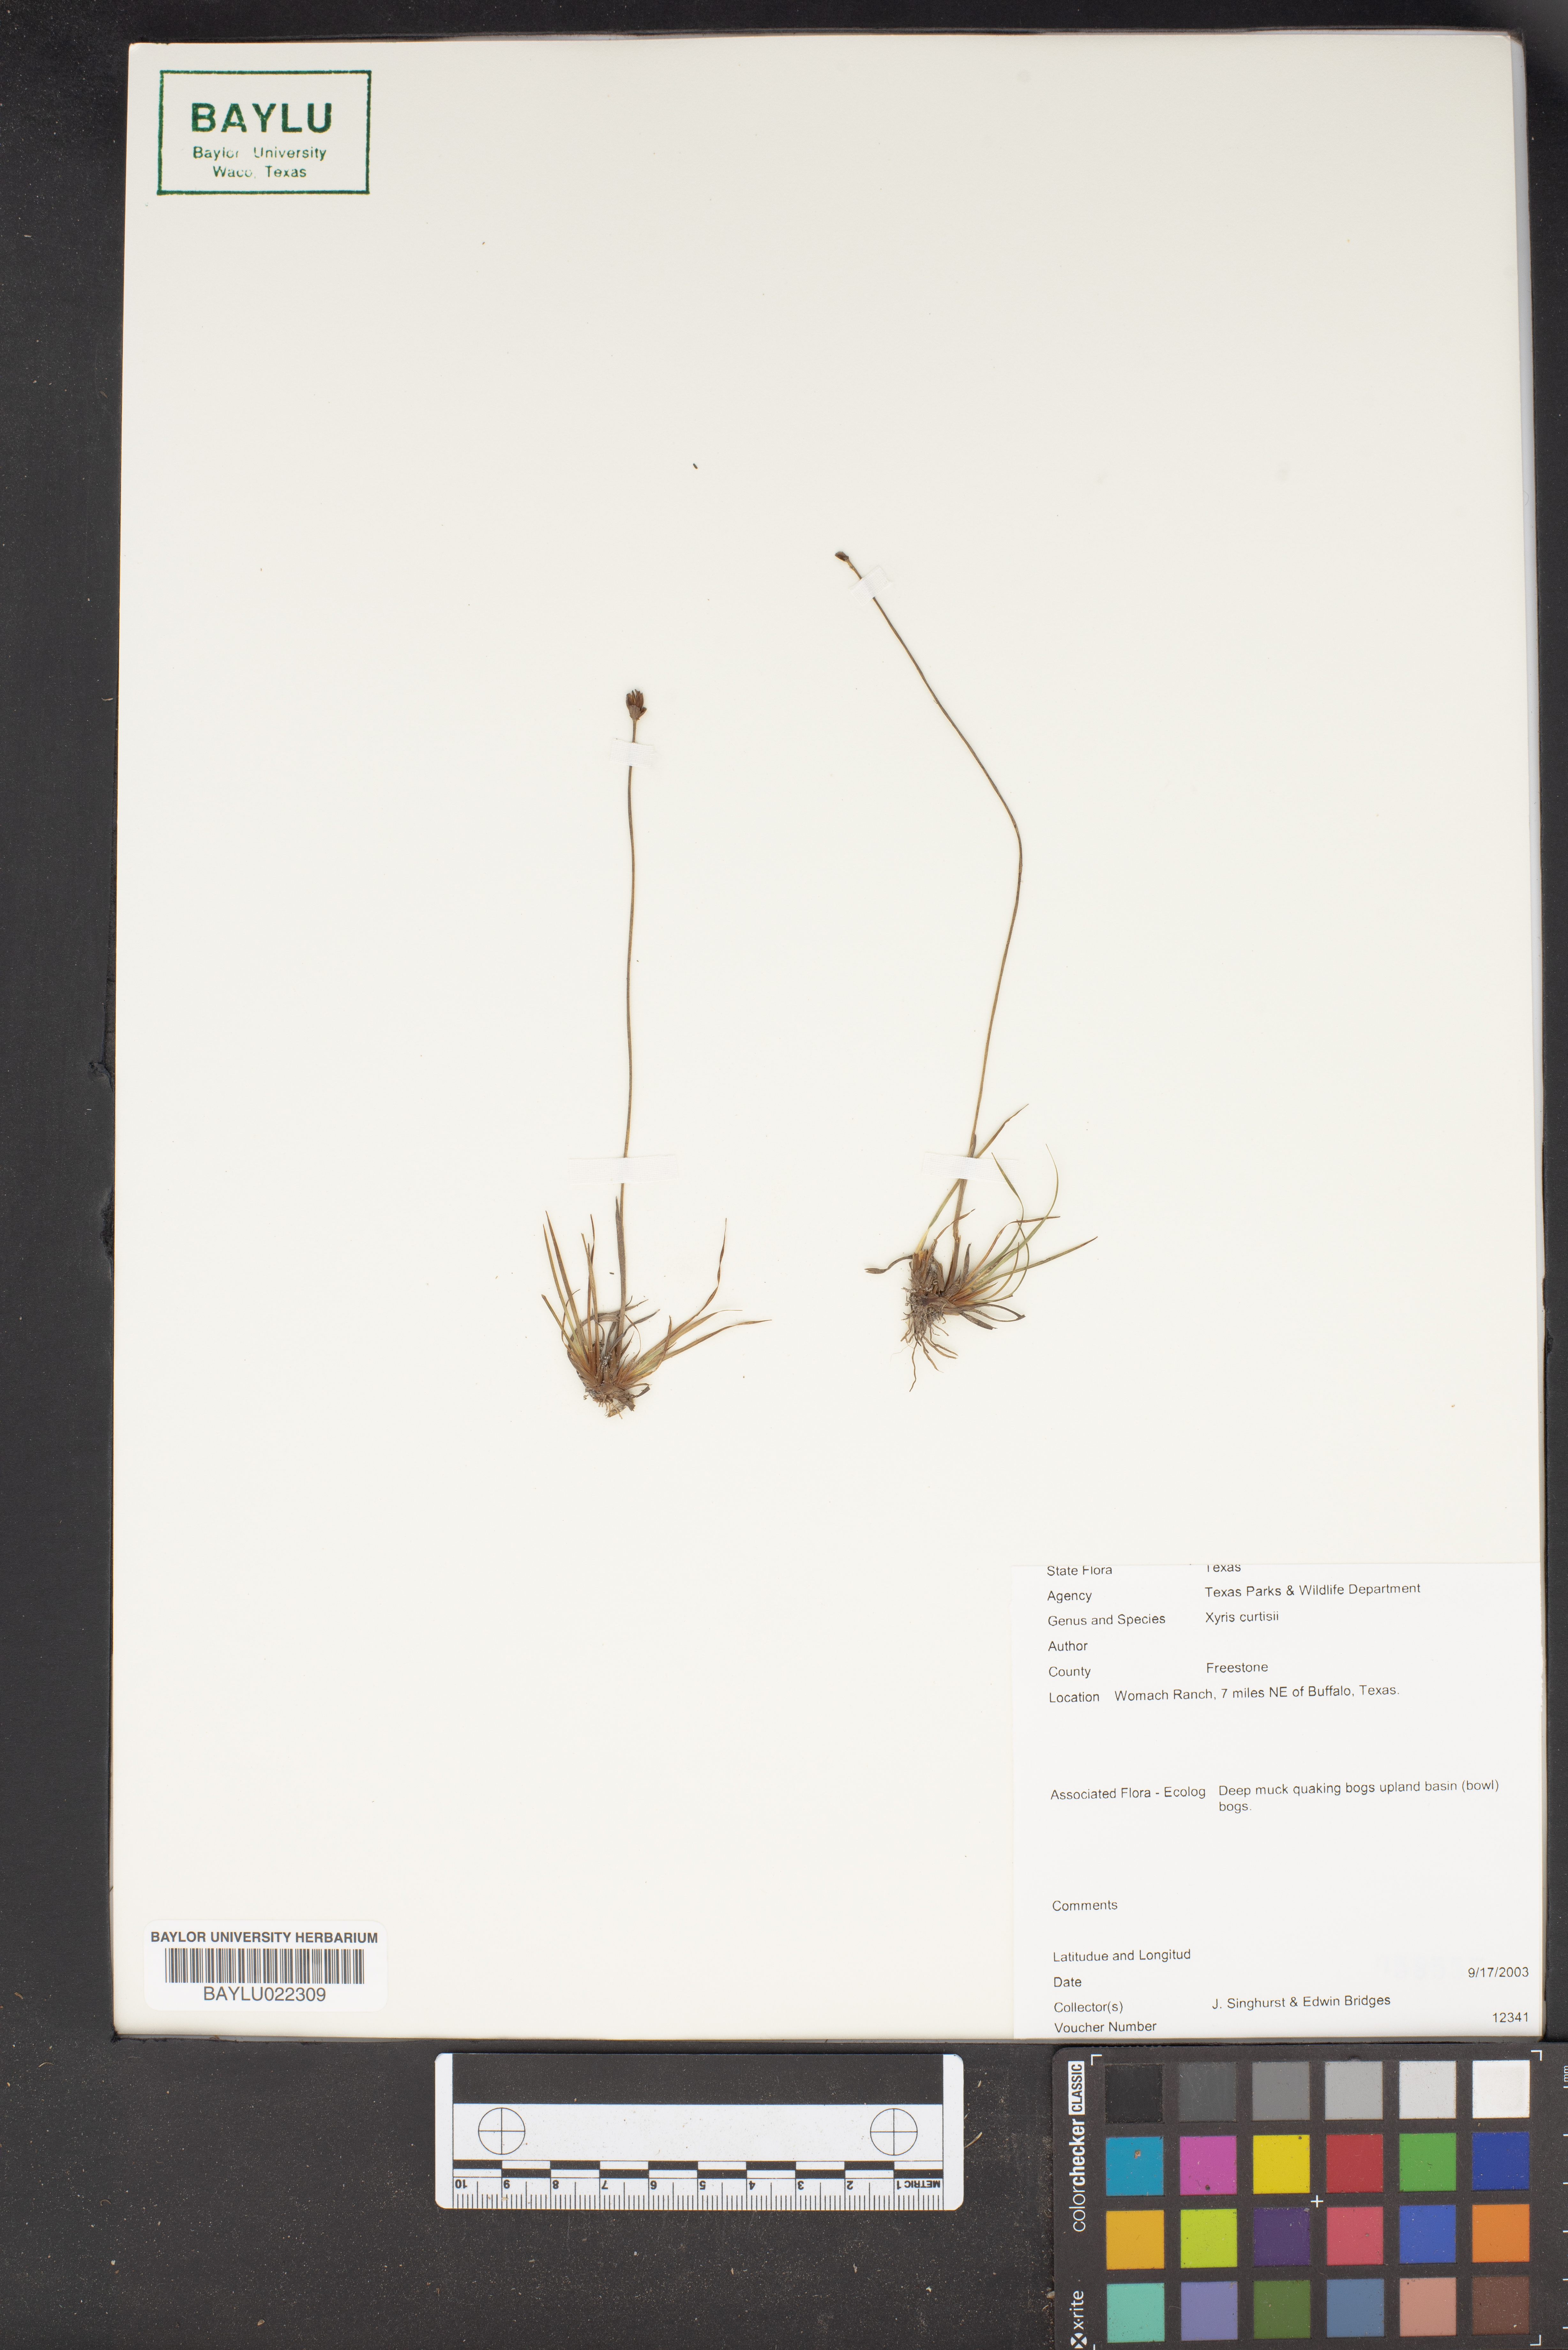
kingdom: Plantae
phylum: Tracheophyta
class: Liliopsida
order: Poales
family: Xyridaceae
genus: Xyris
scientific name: Xyris difformis
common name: Bog yellow-eyed-grass
